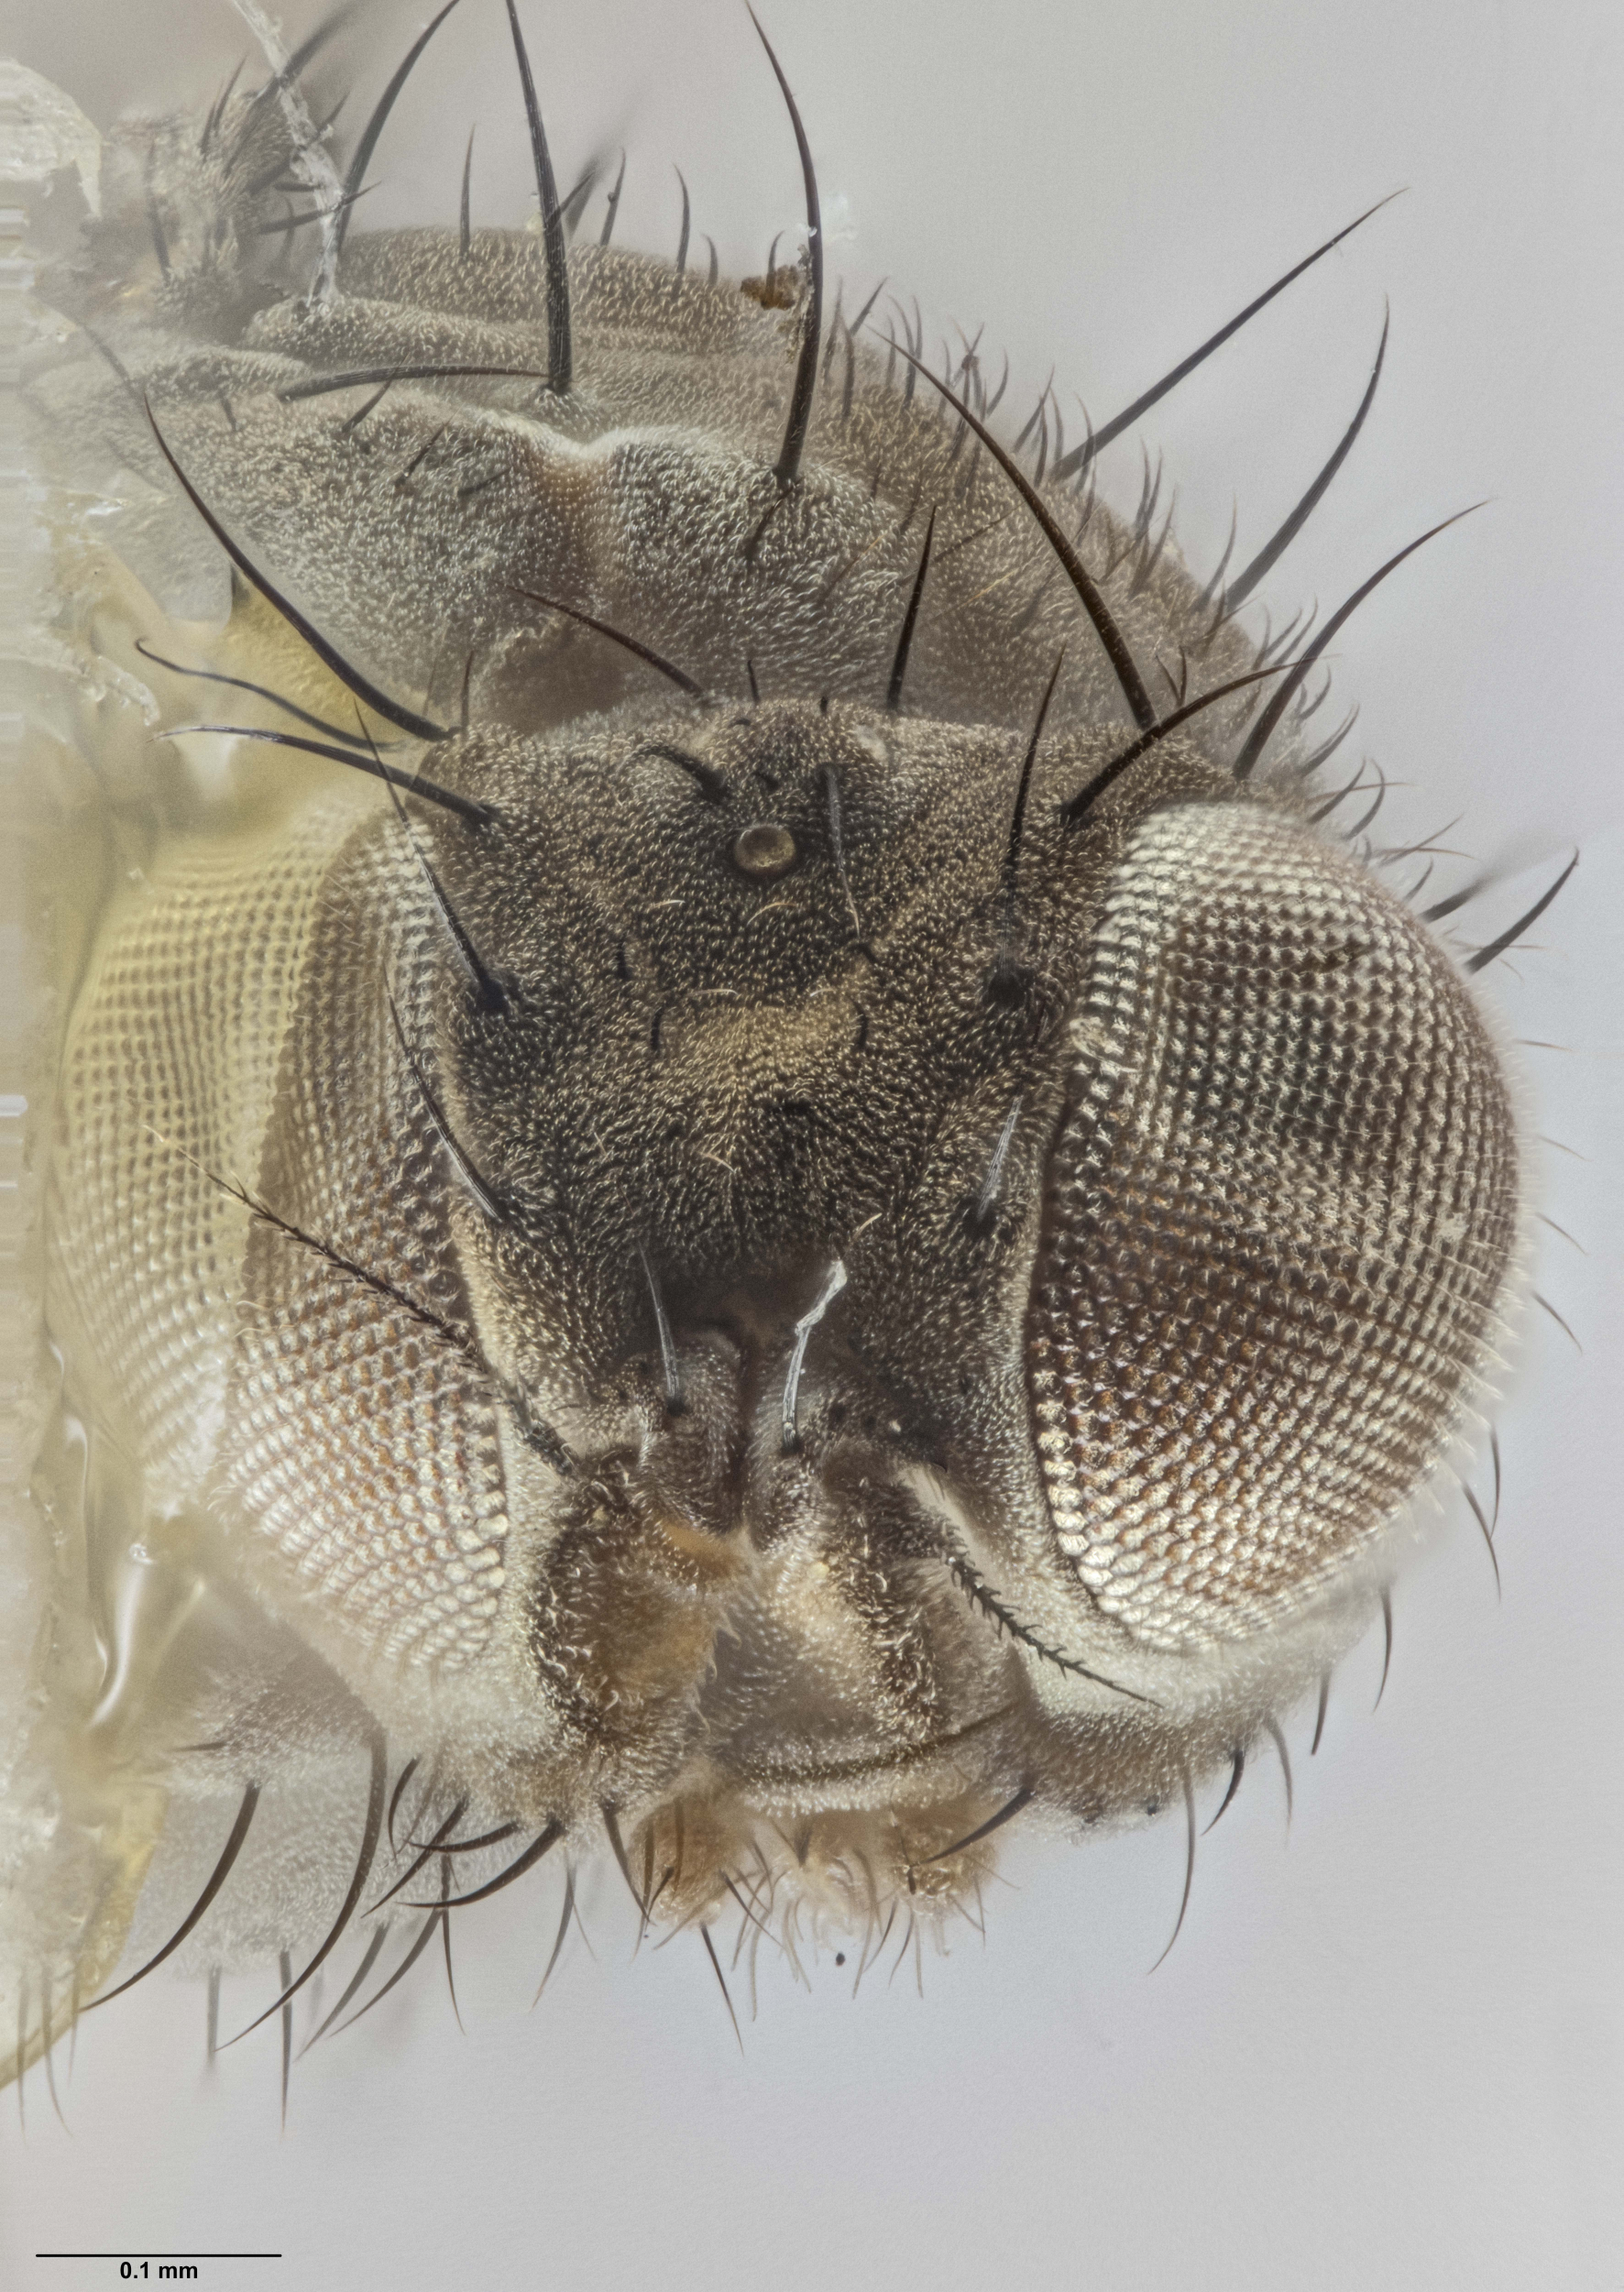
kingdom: Animalia
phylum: Arthropoda
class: Insecta
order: Diptera
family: Canacidae
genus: Zalea
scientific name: Zalea wisei
